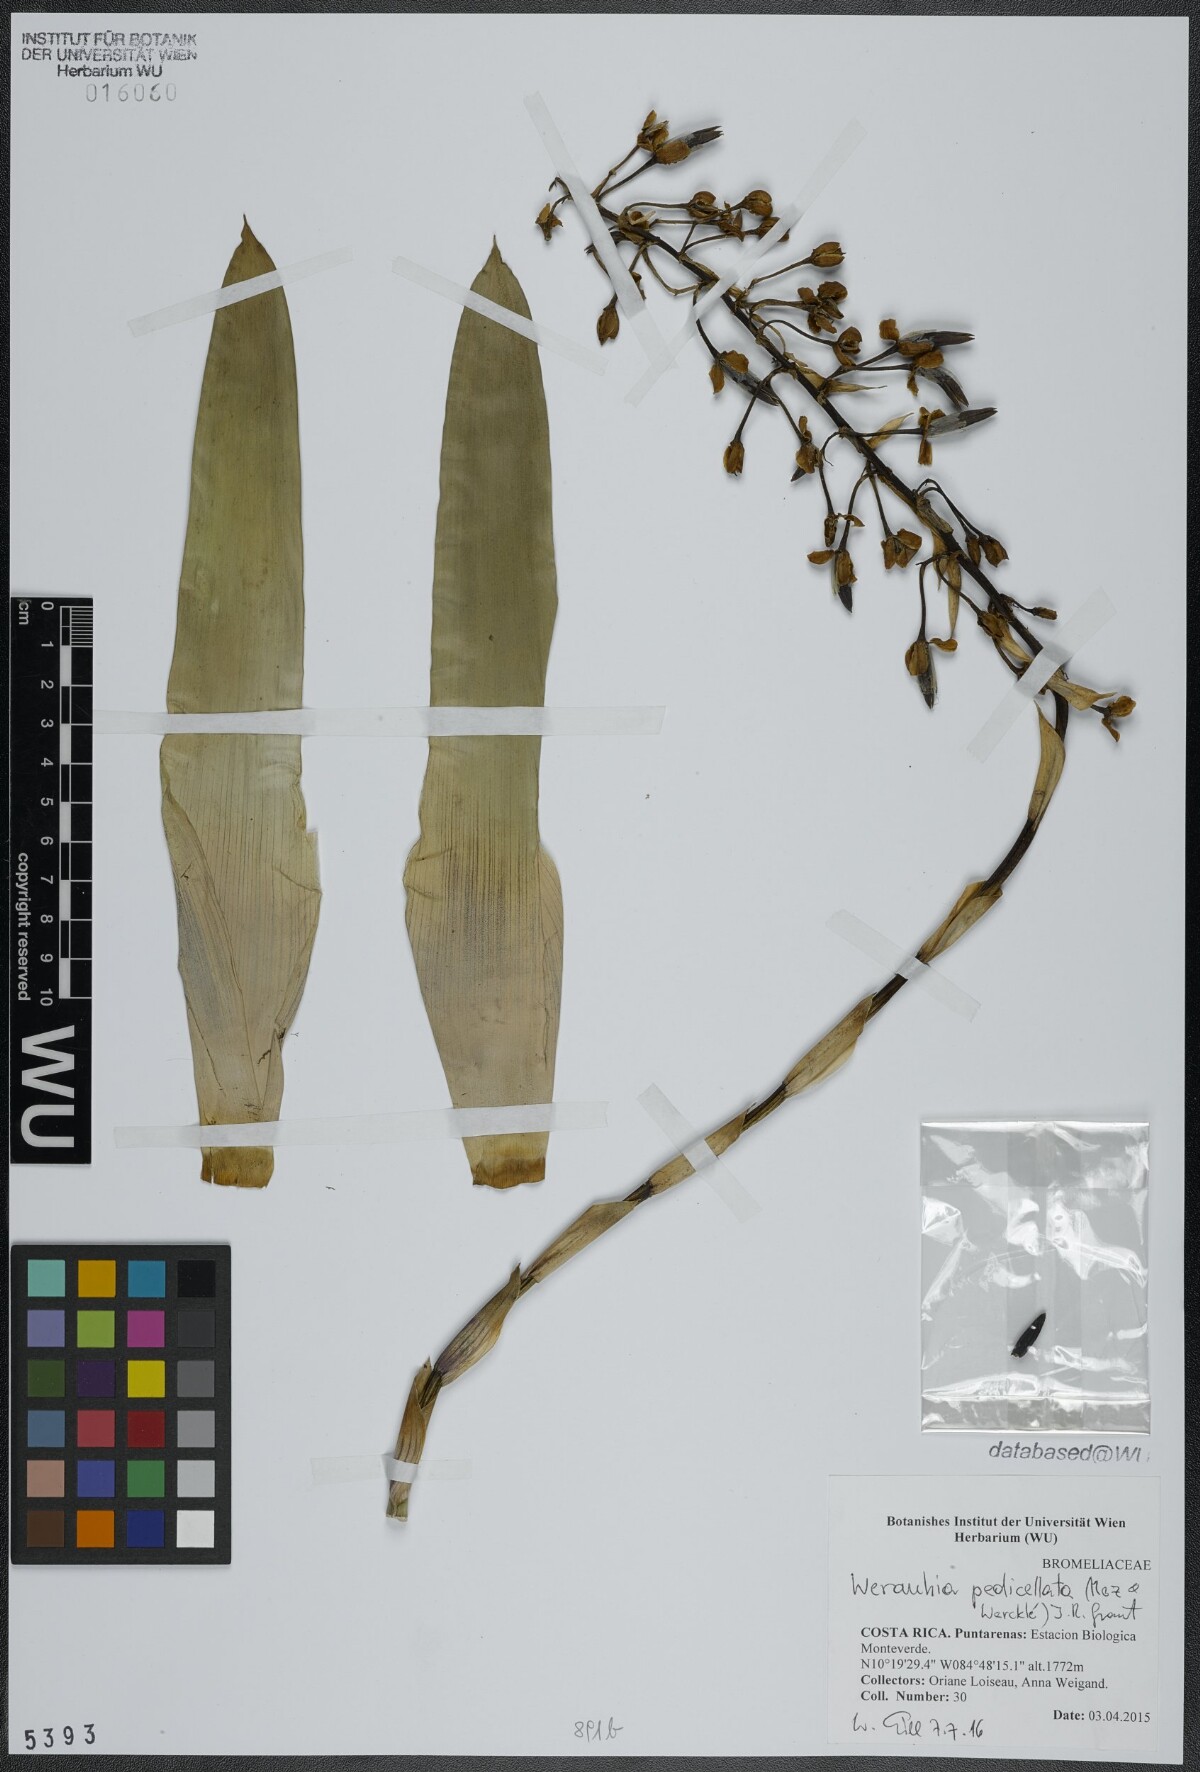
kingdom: Plantae
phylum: Tracheophyta
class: Liliopsida
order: Poales
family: Bromeliaceae
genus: Werauhia
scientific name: Werauhia pedicellata
